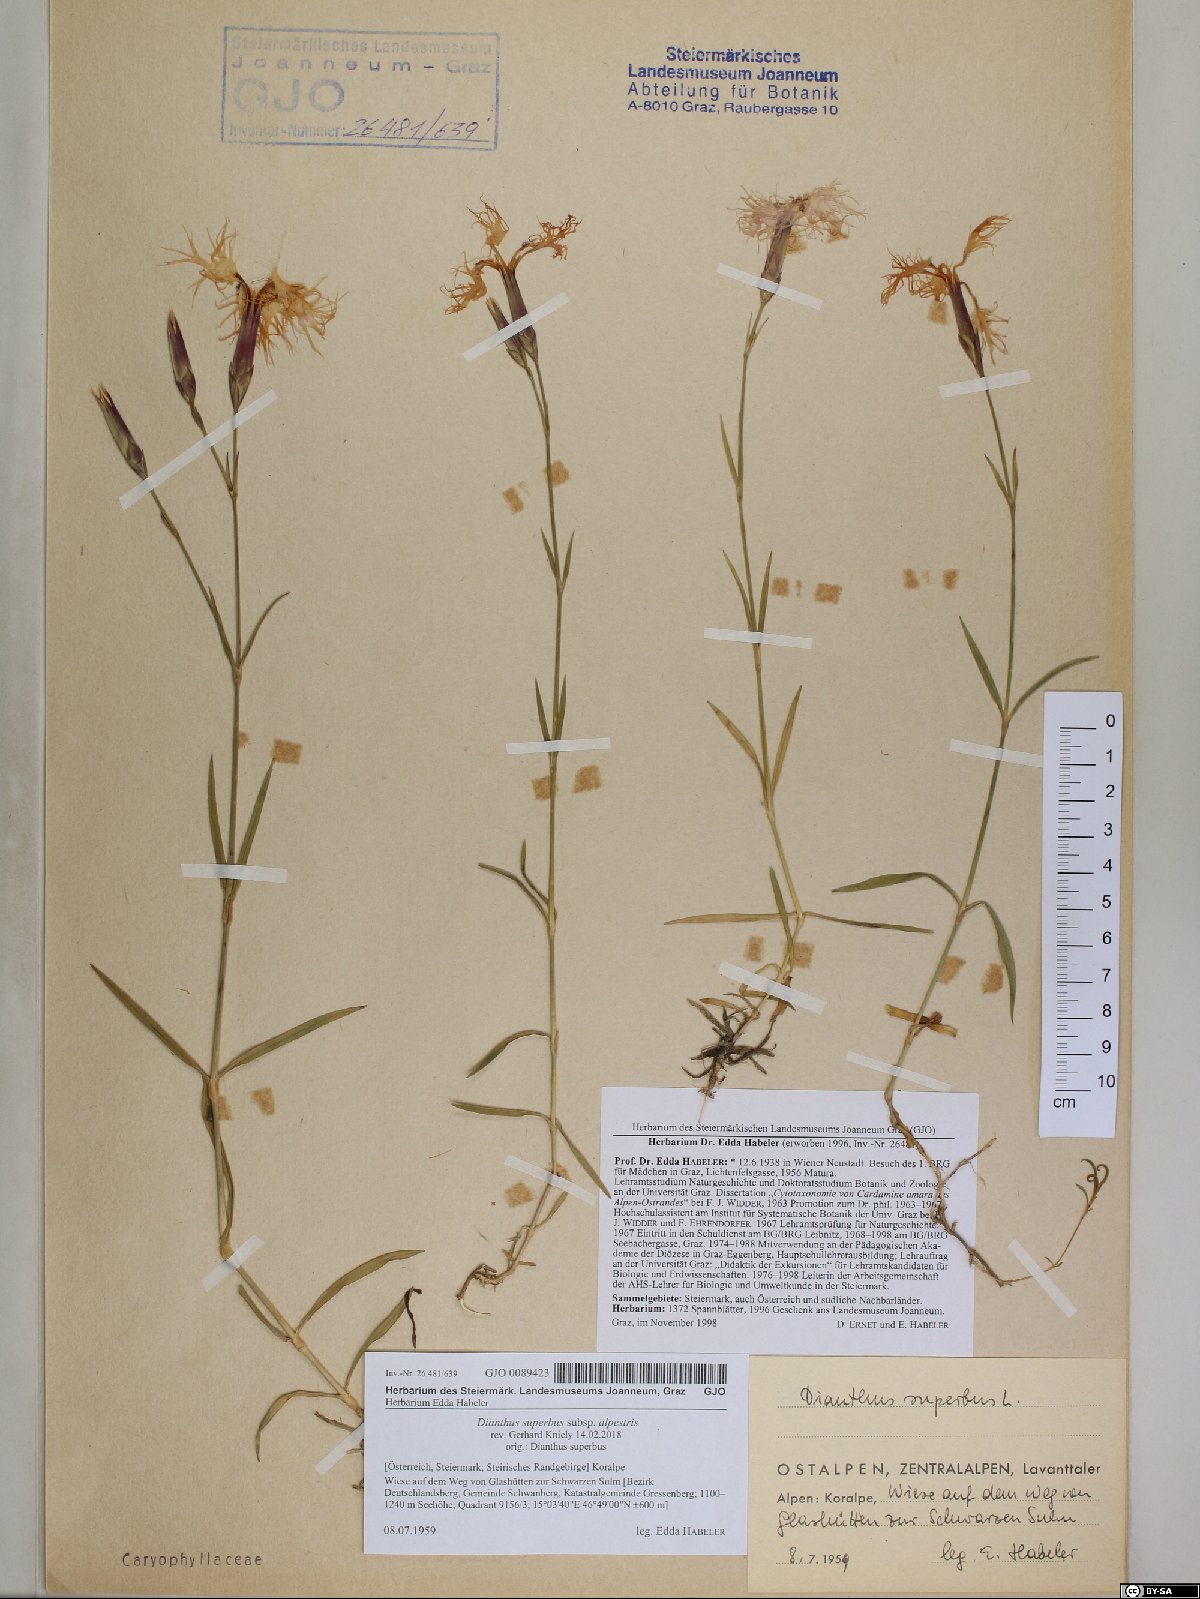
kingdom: Plantae
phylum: Tracheophyta
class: Magnoliopsida
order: Caryophyllales
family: Caryophyllaceae
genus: Dianthus
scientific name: Dianthus superbus
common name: Fringed pink
